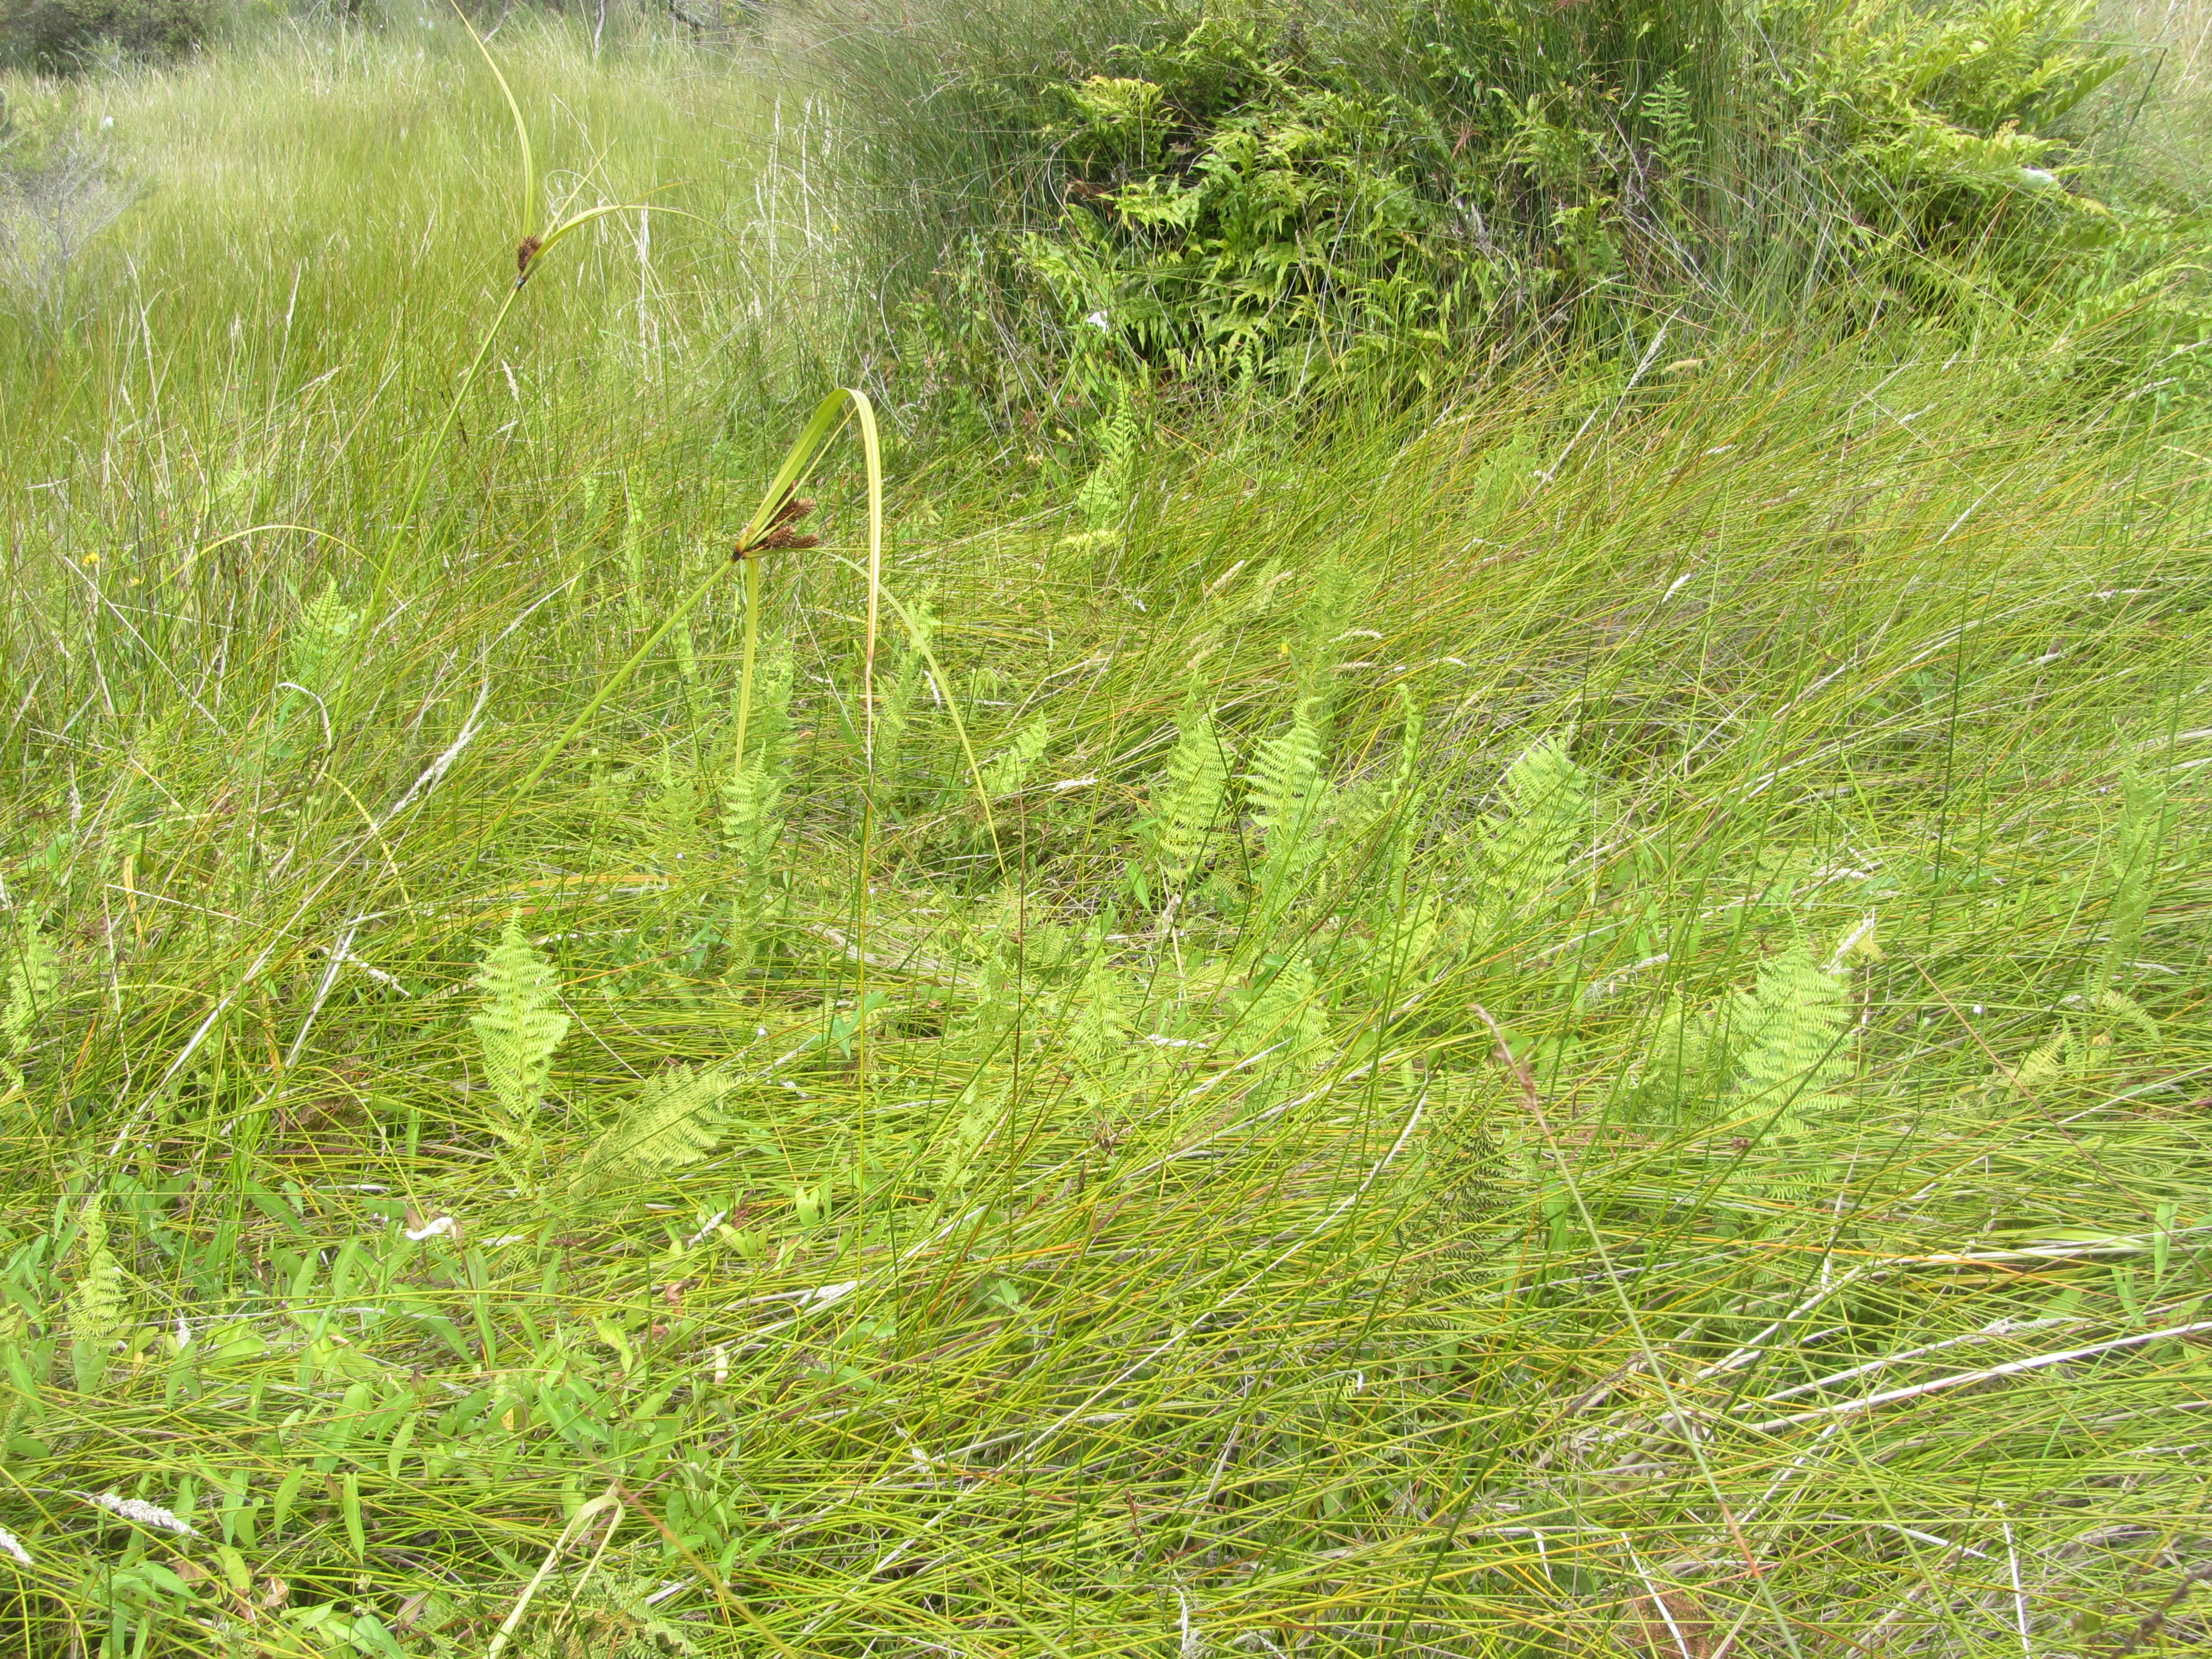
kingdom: Plantae
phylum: Tracheophyta
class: Polypodiopsida
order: Polypodiales
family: Thelypteridaceae
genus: Thelypteris
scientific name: Thelypteris confluens
